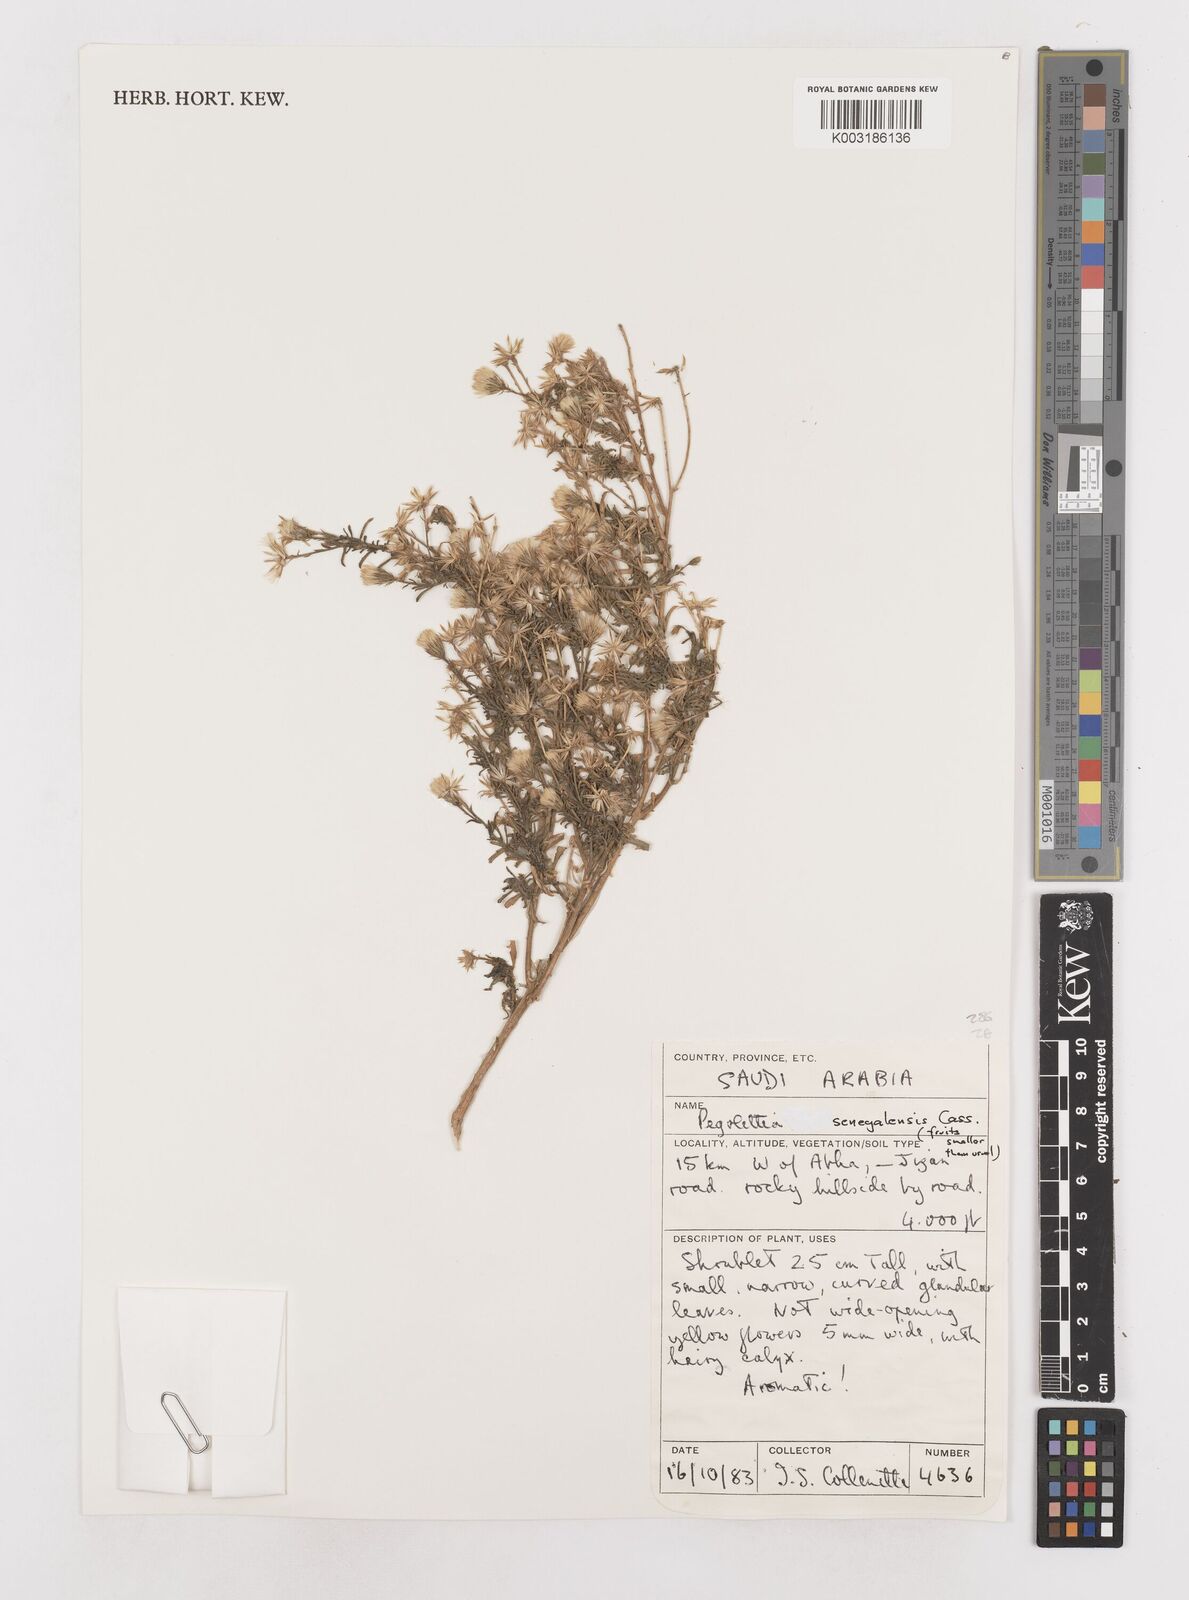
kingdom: Plantae
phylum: Tracheophyta
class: Magnoliopsida
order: Asterales
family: Asteraceae
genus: Pegolettia
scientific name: Pegolettia senegalensis
